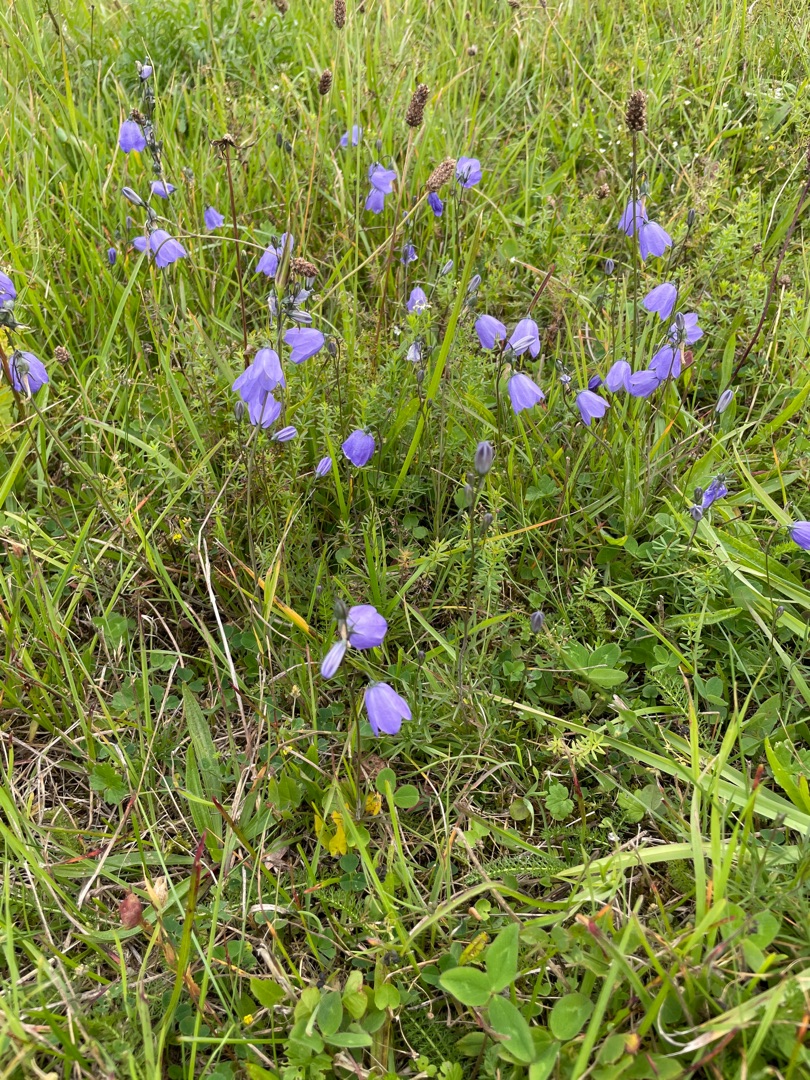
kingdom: Plantae
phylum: Tracheophyta
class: Magnoliopsida
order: Asterales
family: Campanulaceae
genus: Campanula
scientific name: Campanula rotundifolia
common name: Liden klokke
